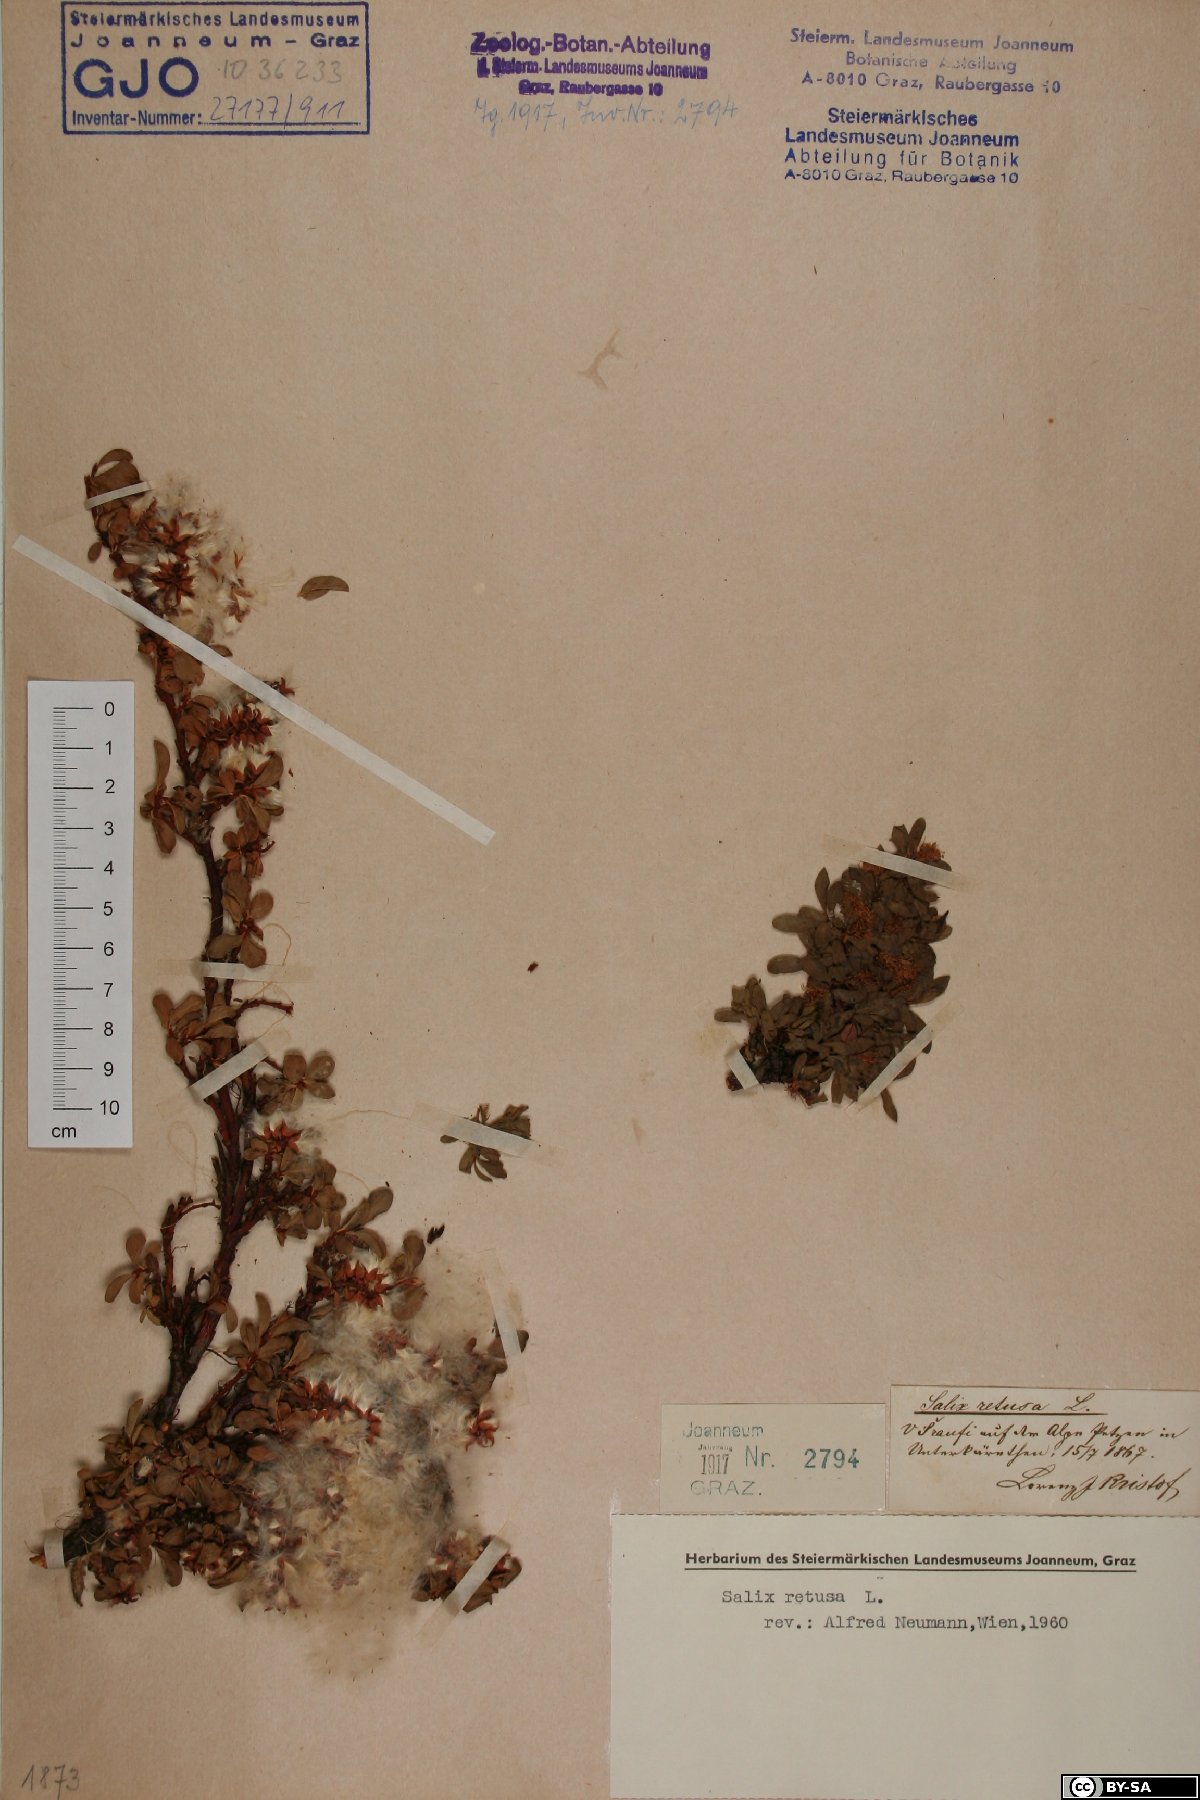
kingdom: Plantae
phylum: Tracheophyta
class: Magnoliopsida
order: Malpighiales
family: Salicaceae
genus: Salix
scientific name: Salix retusa
